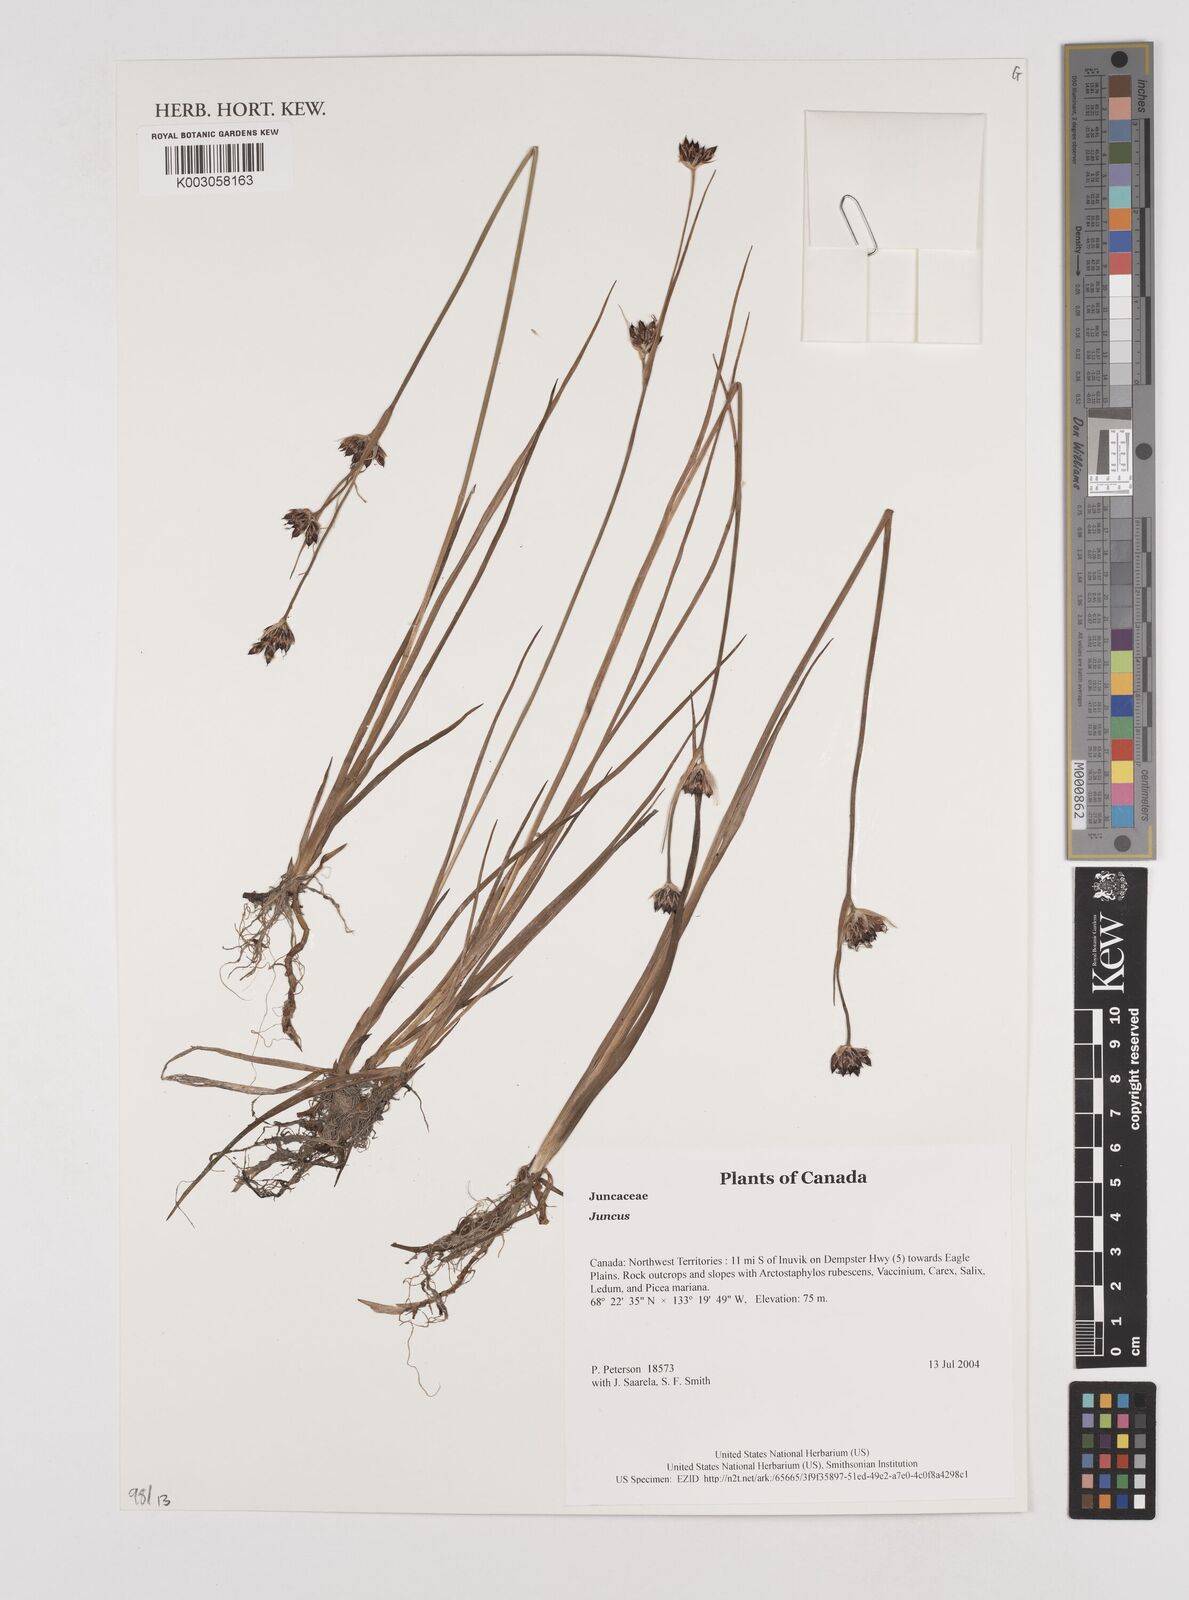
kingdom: Plantae
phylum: Tracheophyta
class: Liliopsida
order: Poales
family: Juncaceae
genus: Juncus
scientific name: Juncus
